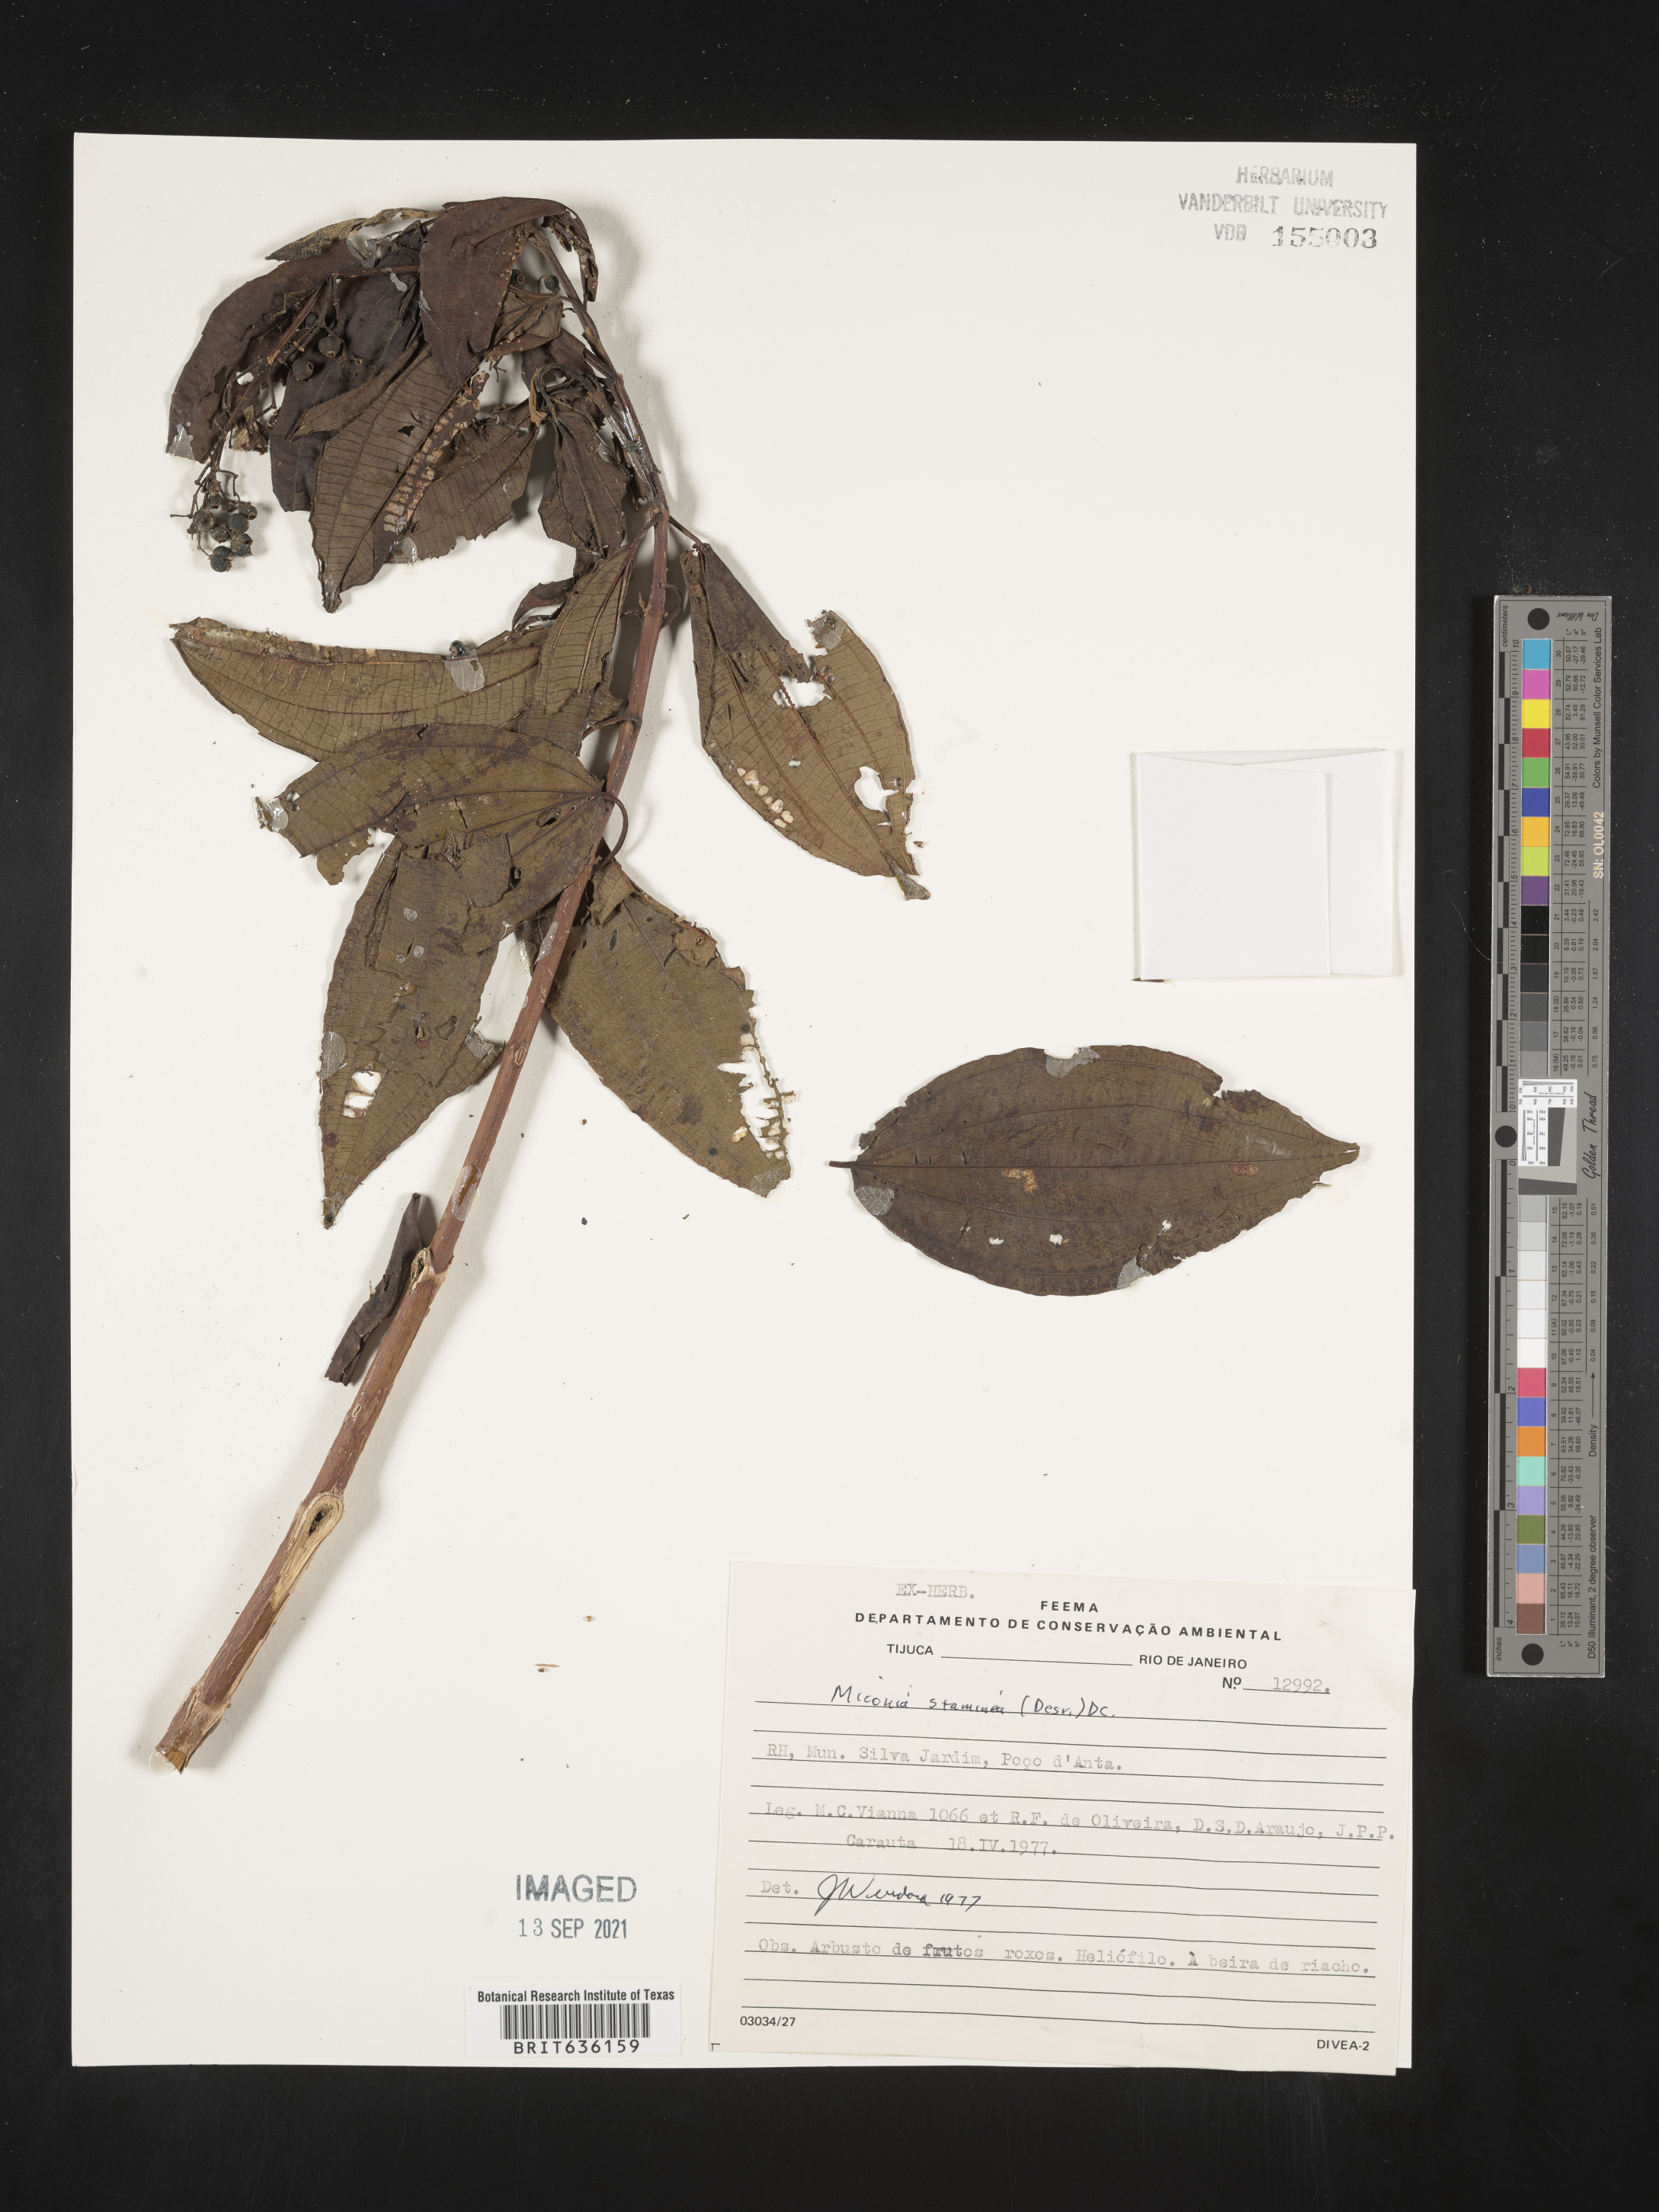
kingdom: Plantae
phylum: Tracheophyta
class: Magnoliopsida
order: Myrtales
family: Melastomataceae
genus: Miconia
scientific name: Miconia
